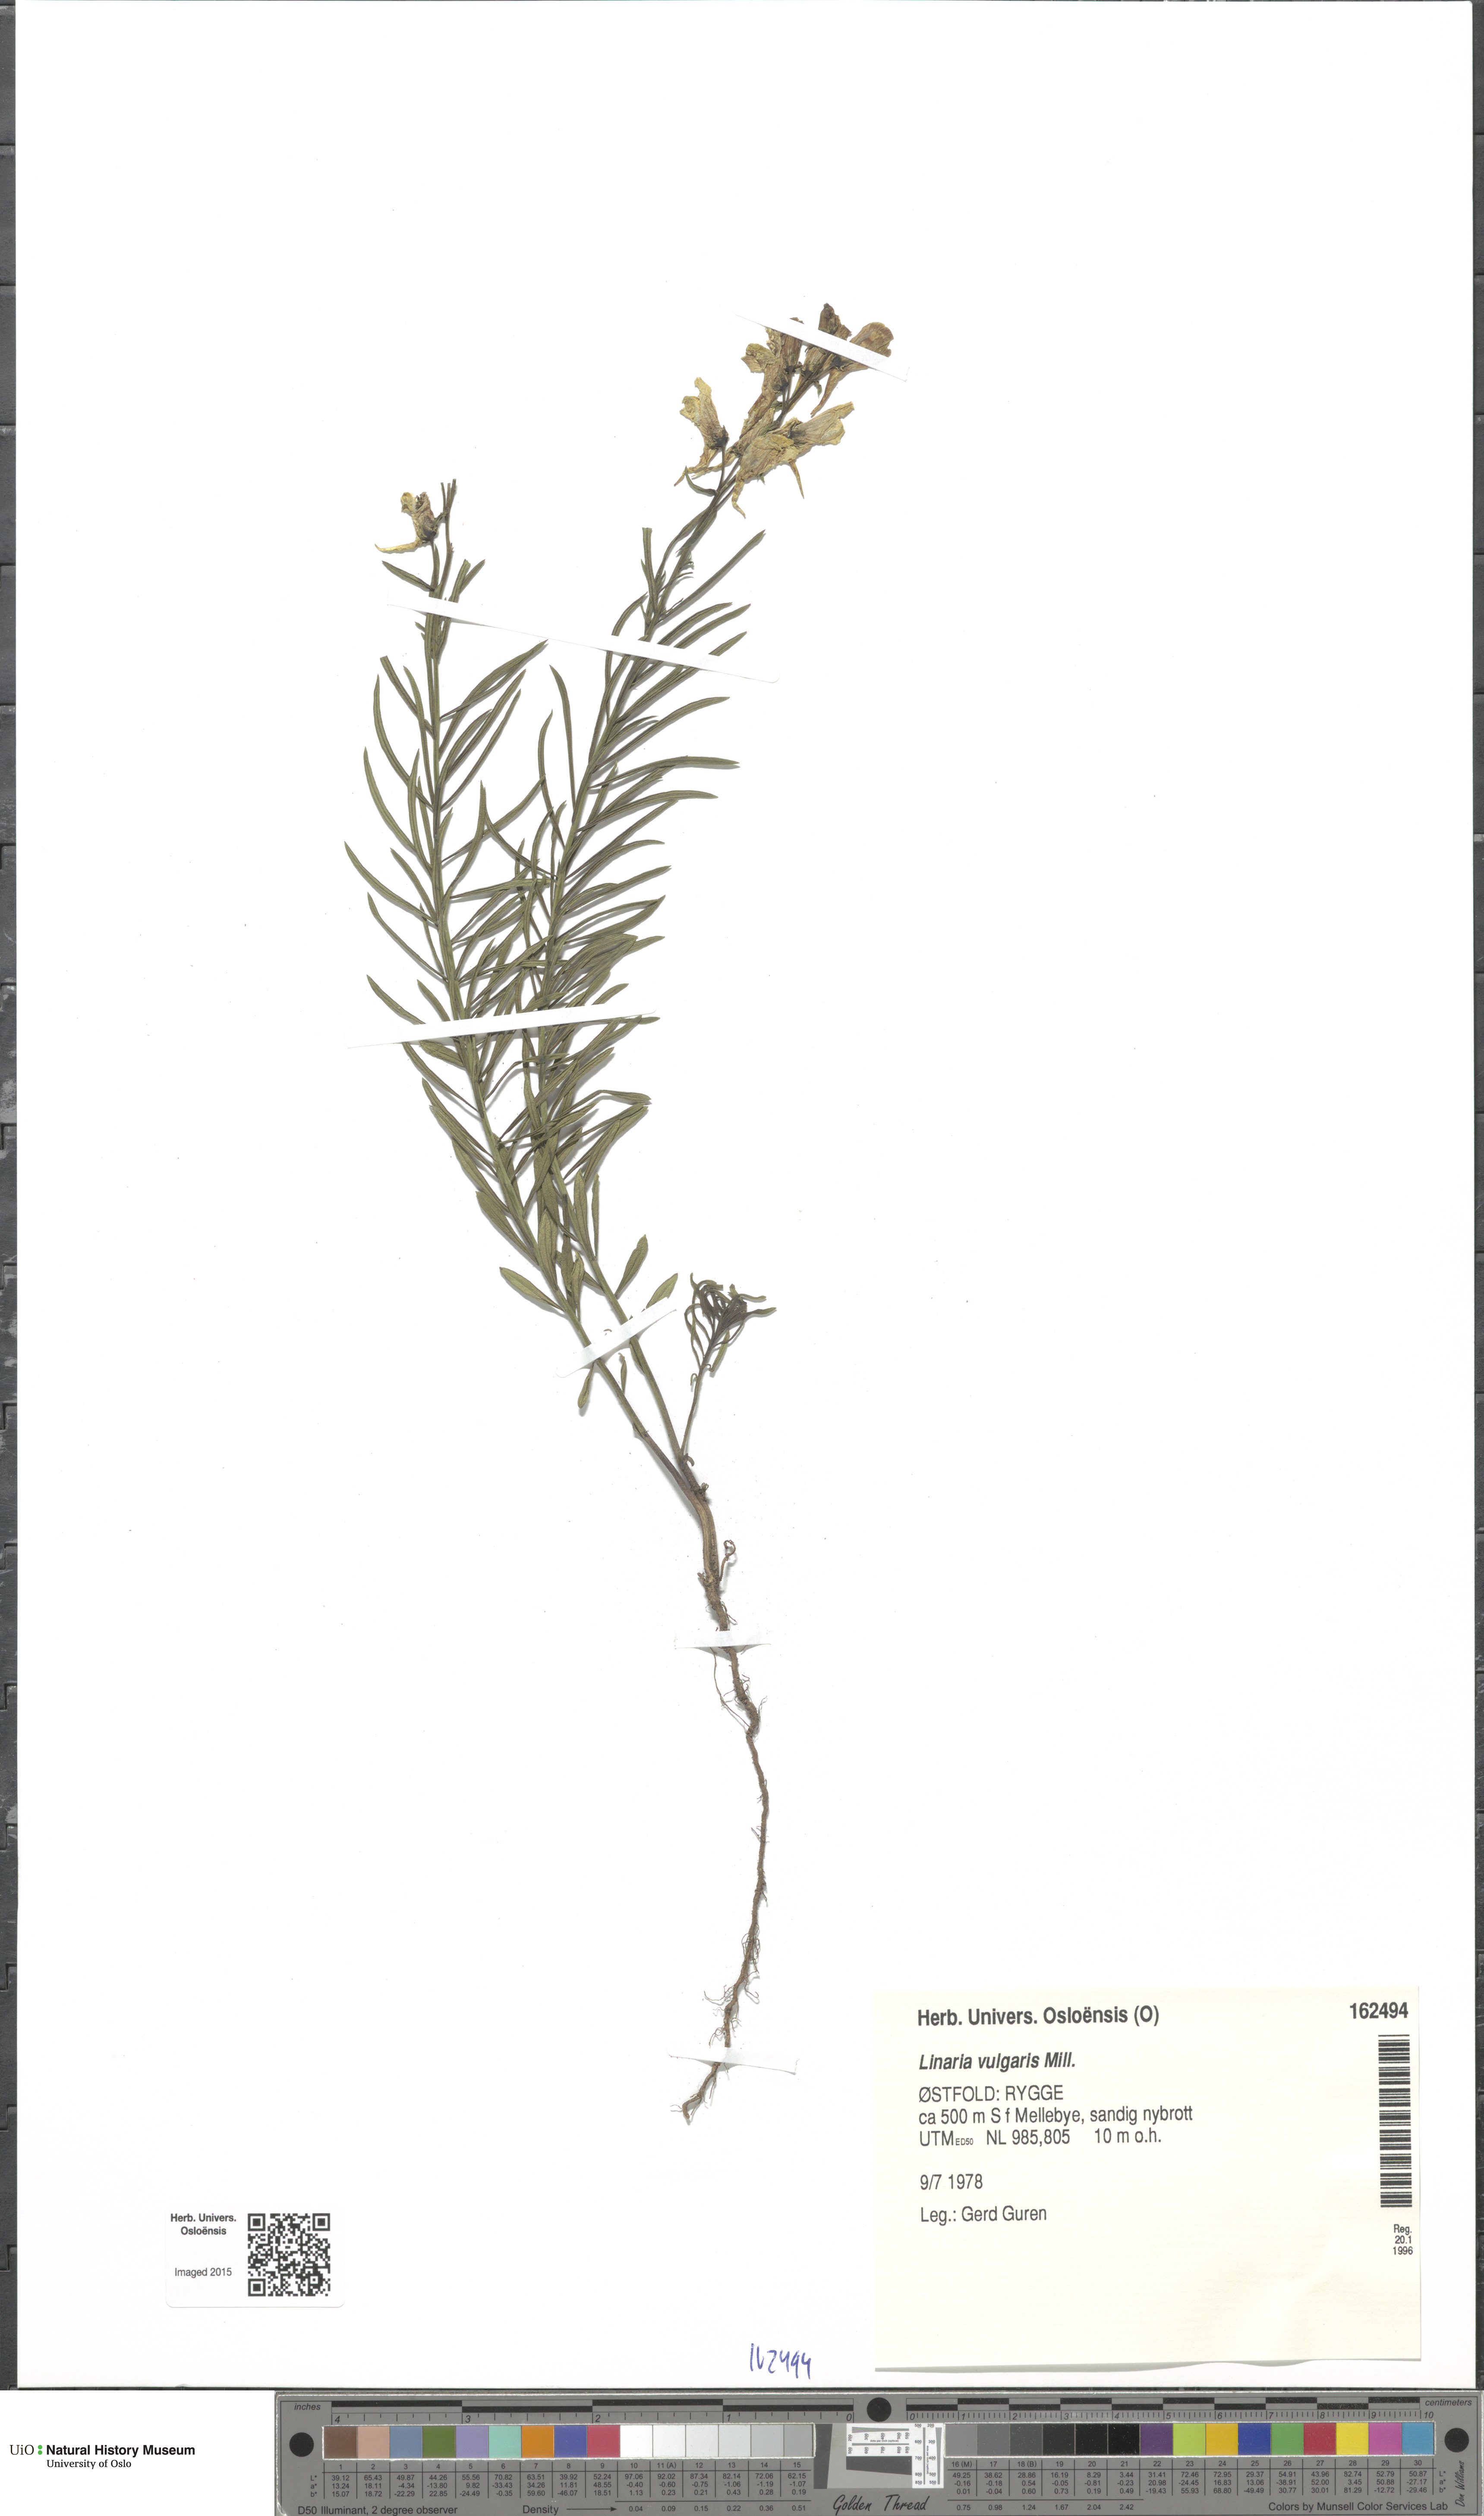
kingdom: Plantae
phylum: Tracheophyta
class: Magnoliopsida
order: Lamiales
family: Plantaginaceae
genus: Linaria
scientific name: Linaria vulgaris
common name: Butter and eggs
